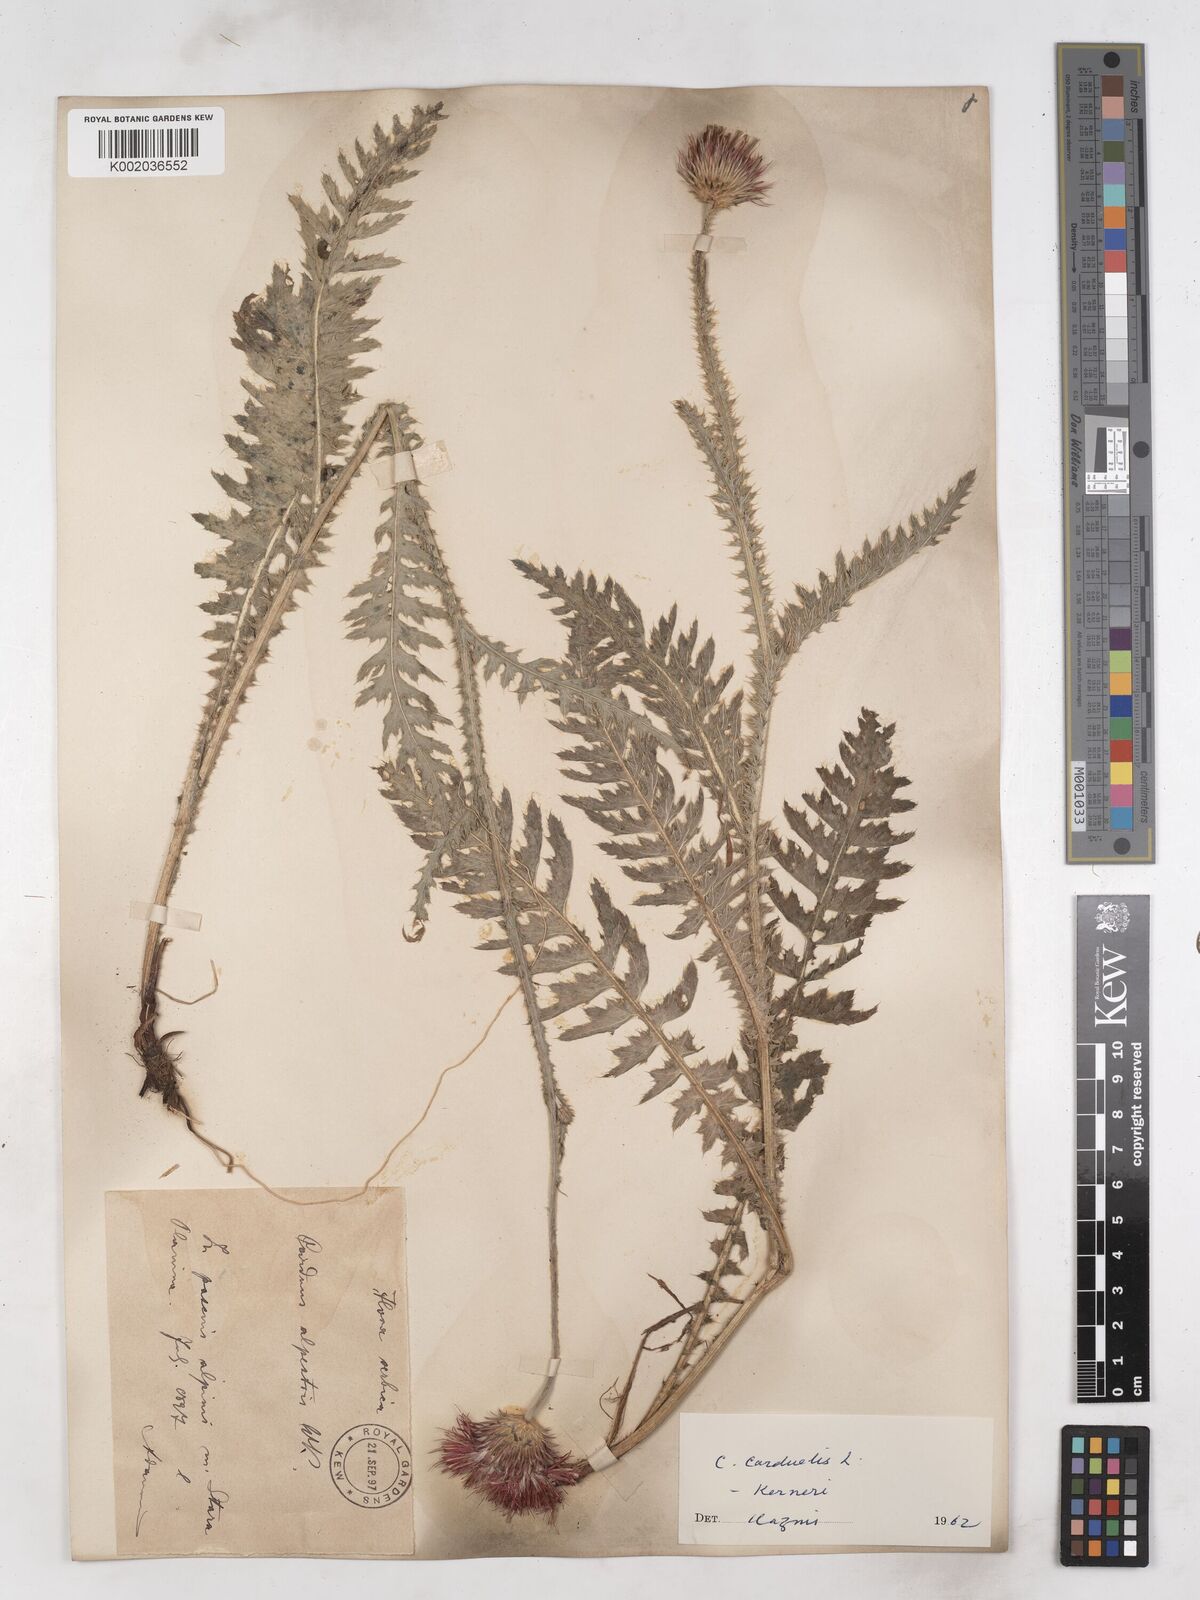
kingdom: Plantae
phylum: Tracheophyta
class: Magnoliopsida
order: Asterales
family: Asteraceae
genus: Carduus
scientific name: Carduus kerneri
